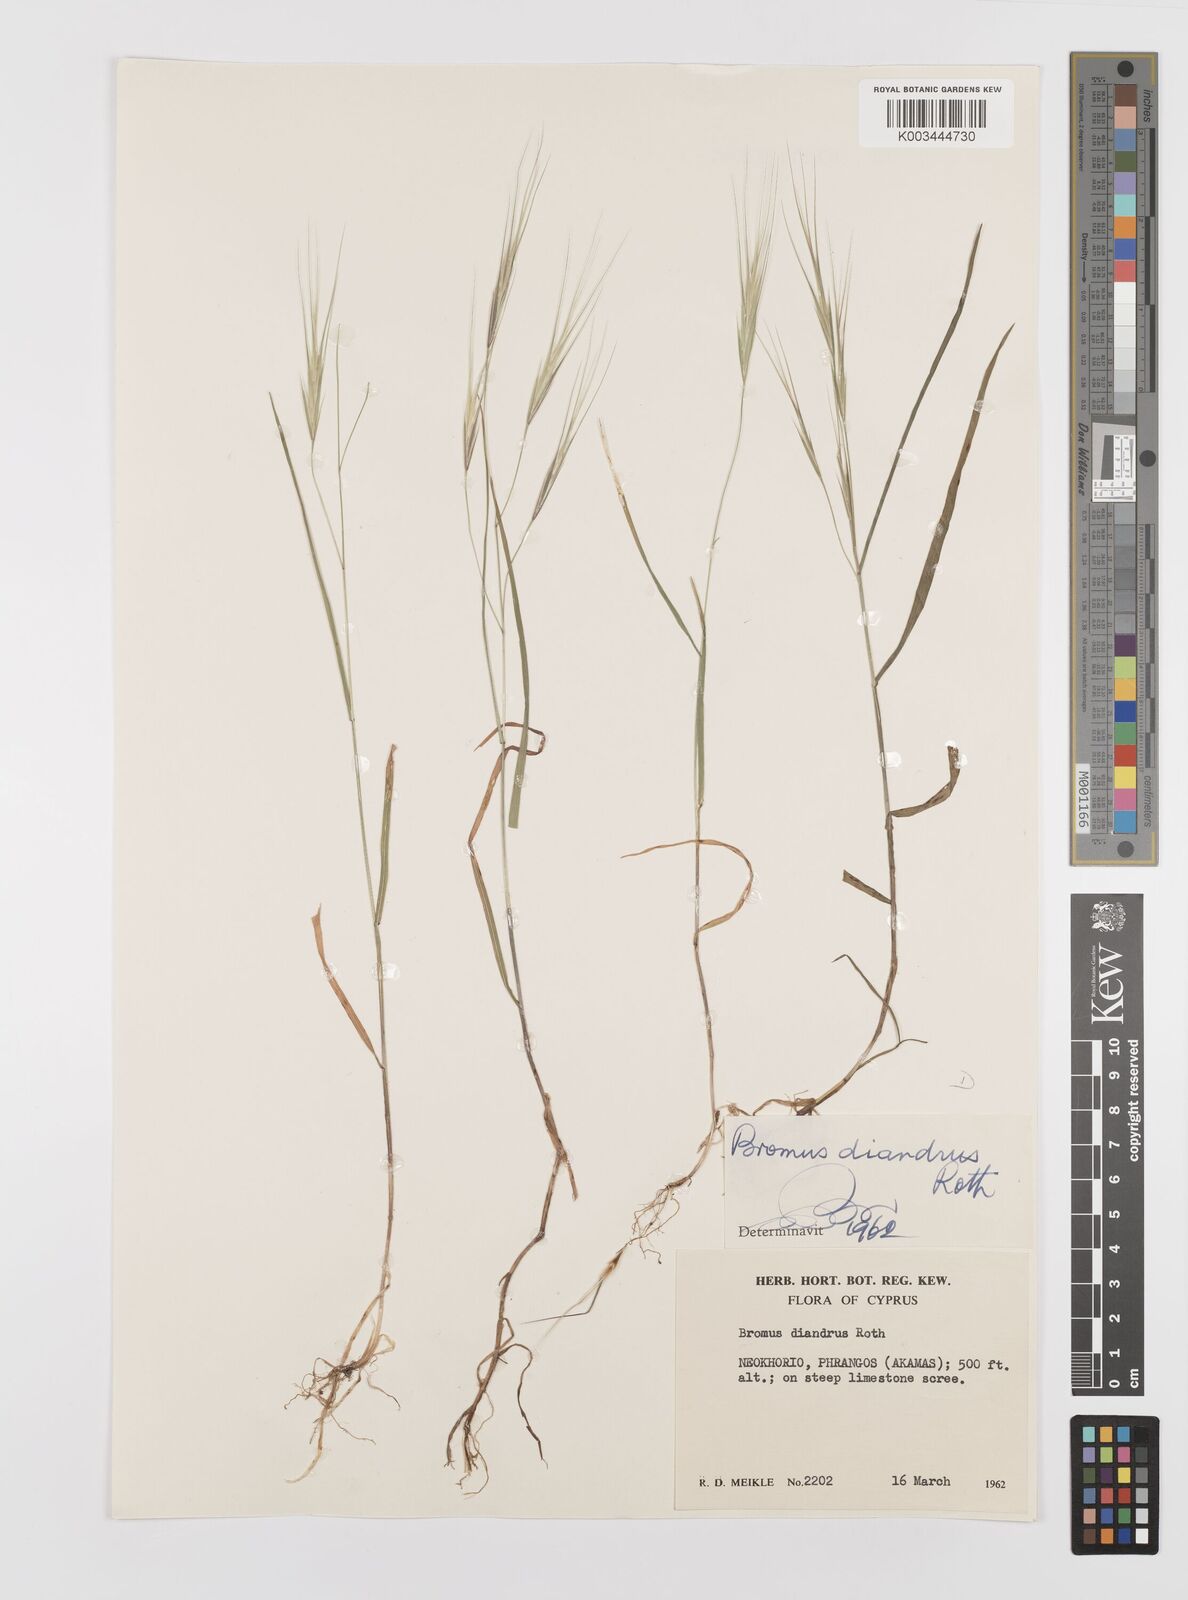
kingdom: Plantae
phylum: Tracheophyta
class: Liliopsida
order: Poales
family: Poaceae
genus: Bromus
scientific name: Bromus diandrus
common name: Ripgut brome
